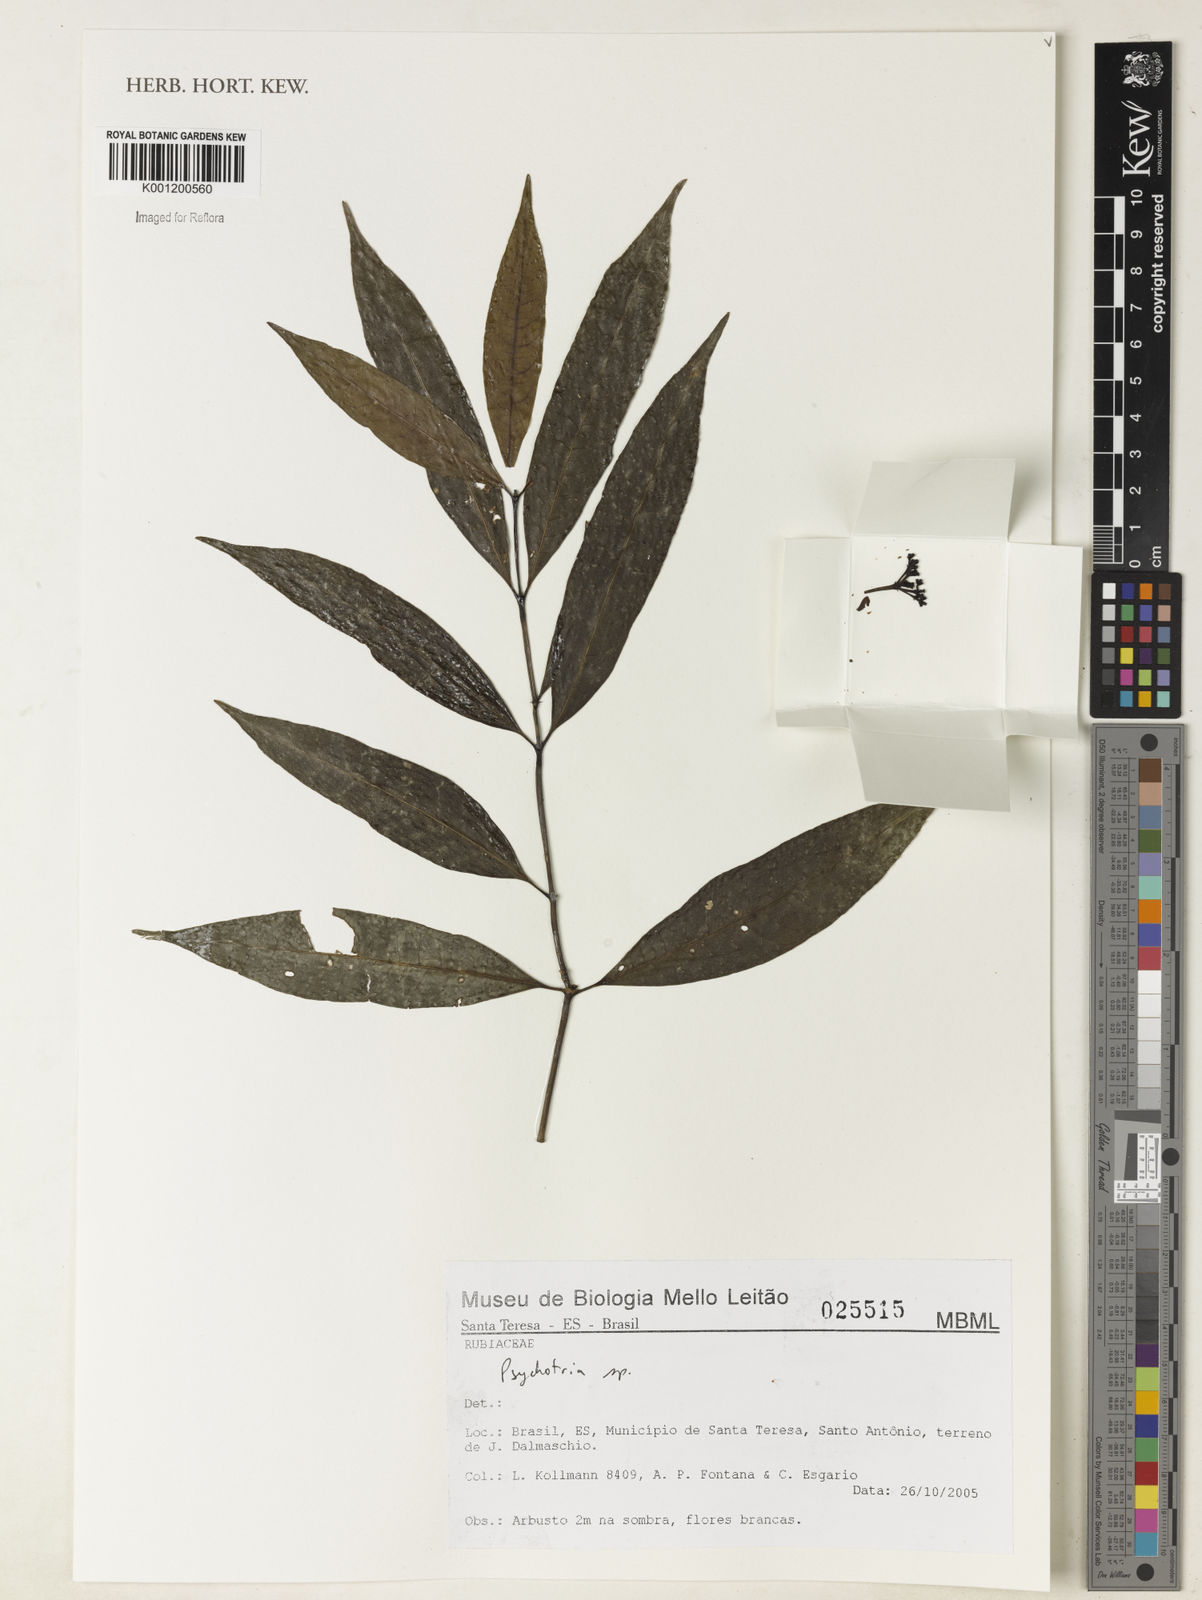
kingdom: Plantae
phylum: Tracheophyta
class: Magnoliopsida
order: Gentianales
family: Rubiaceae
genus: Psychotria
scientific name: Psychotria
